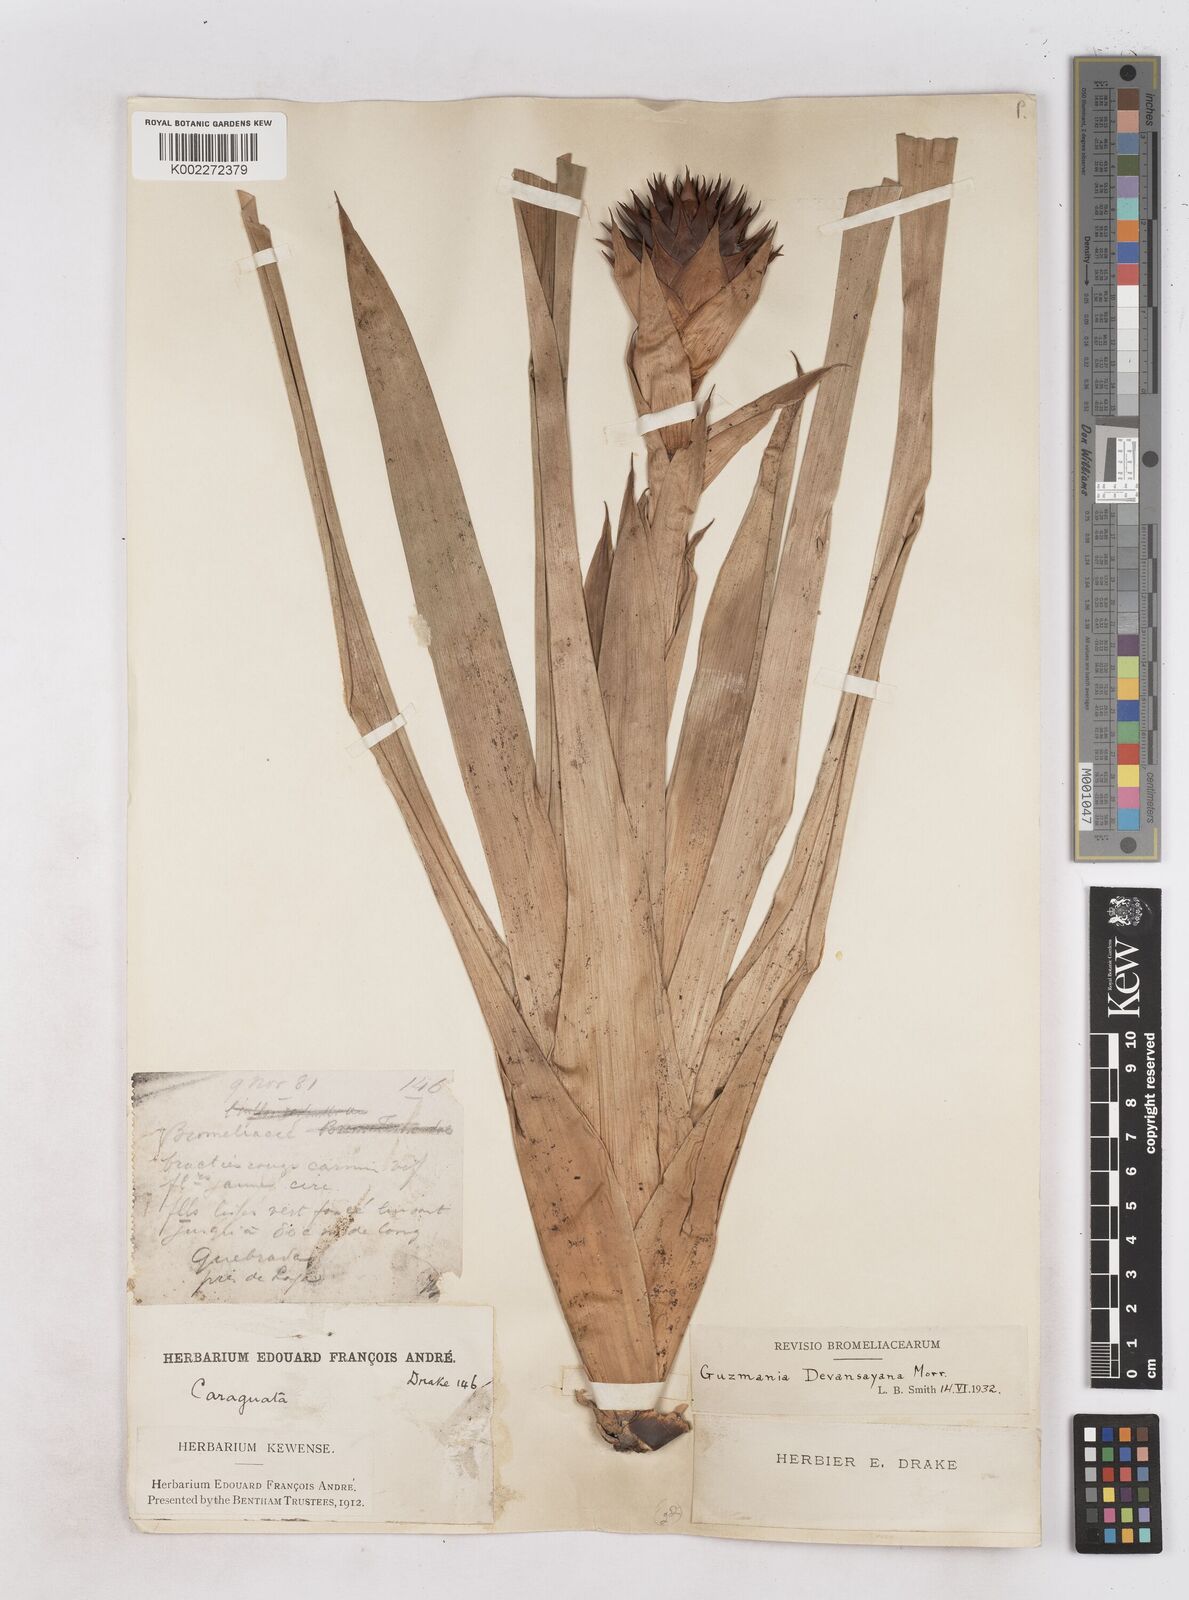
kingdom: Plantae
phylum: Tracheophyta
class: Liliopsida
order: Poales
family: Bromeliaceae
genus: Guzmania
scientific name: Guzmania devansayana
